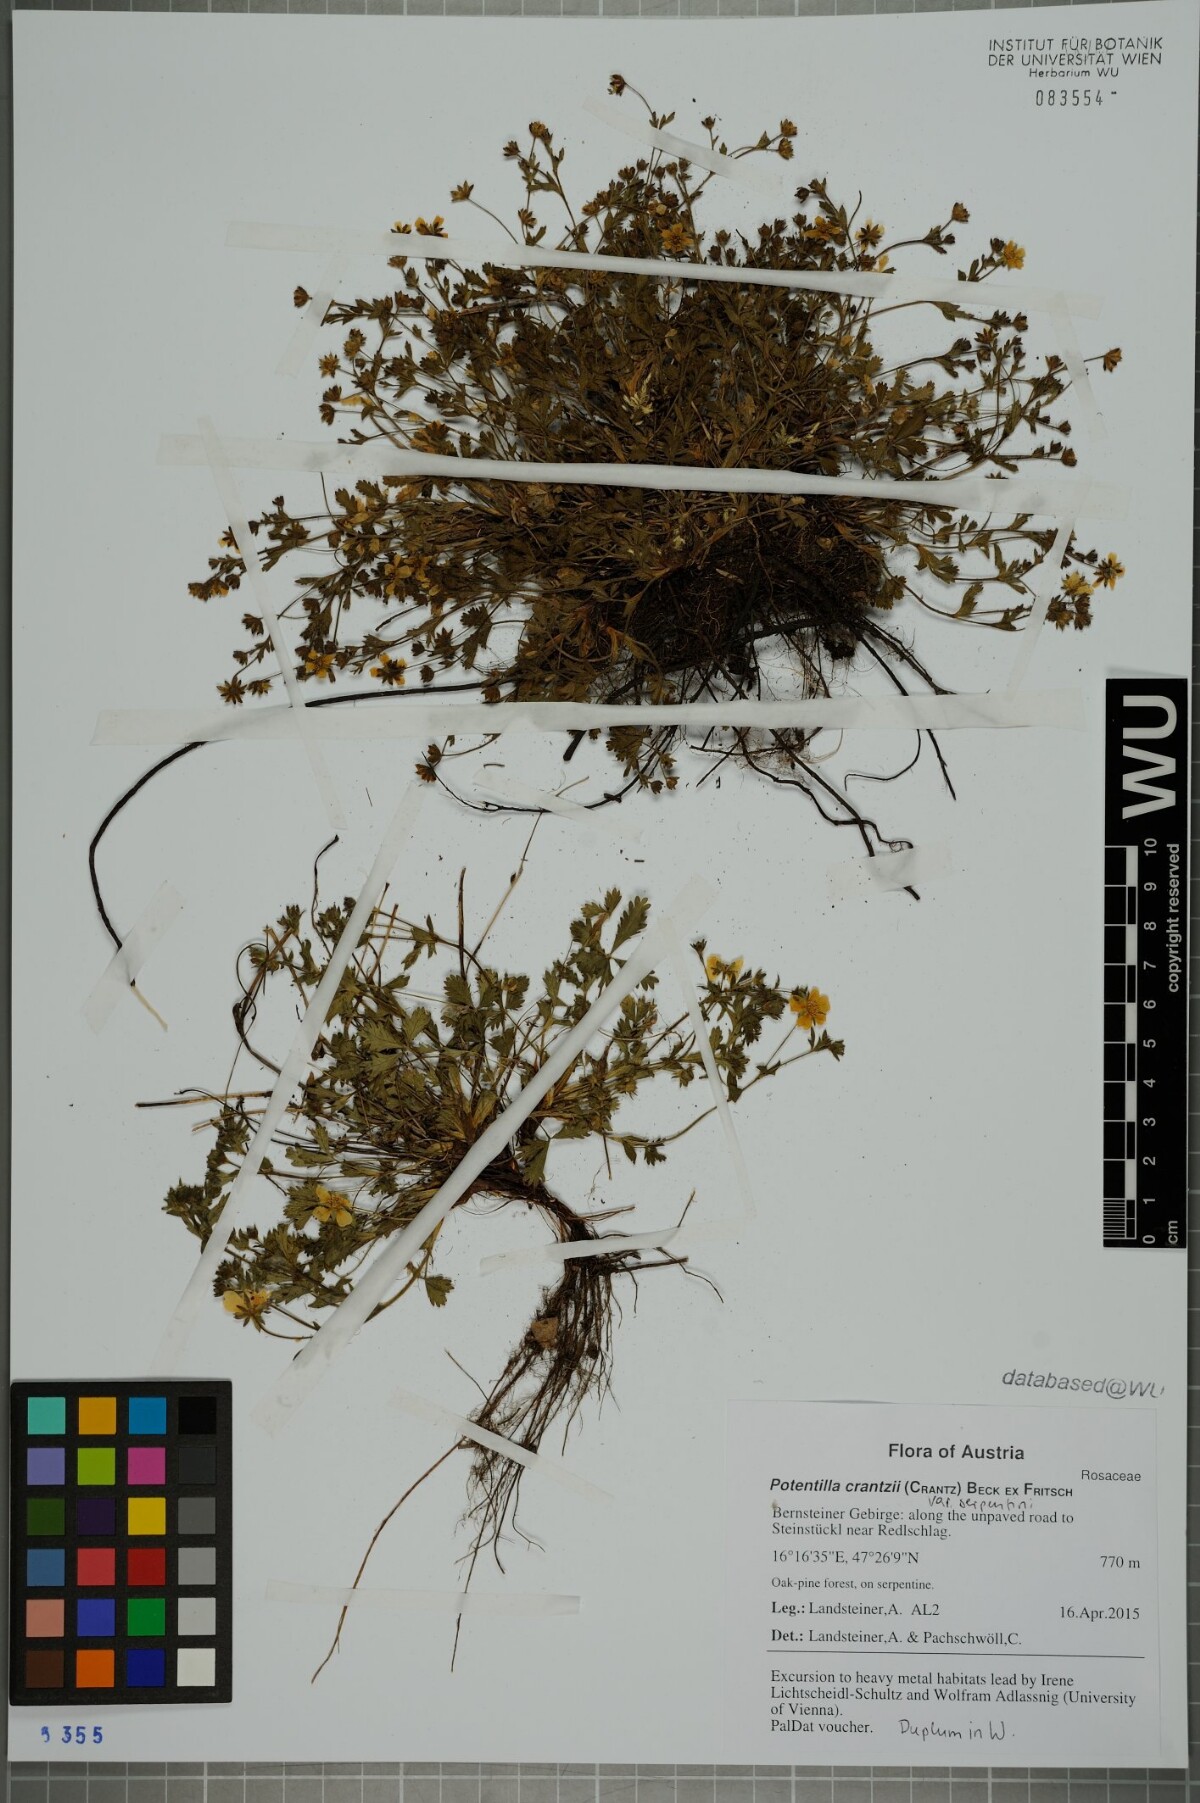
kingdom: Plantae
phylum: Tracheophyta
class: Magnoliopsida
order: Rosales
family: Rosaceae
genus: Potentilla
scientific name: Potentilla crantzii
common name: Alpine cinquefoil
